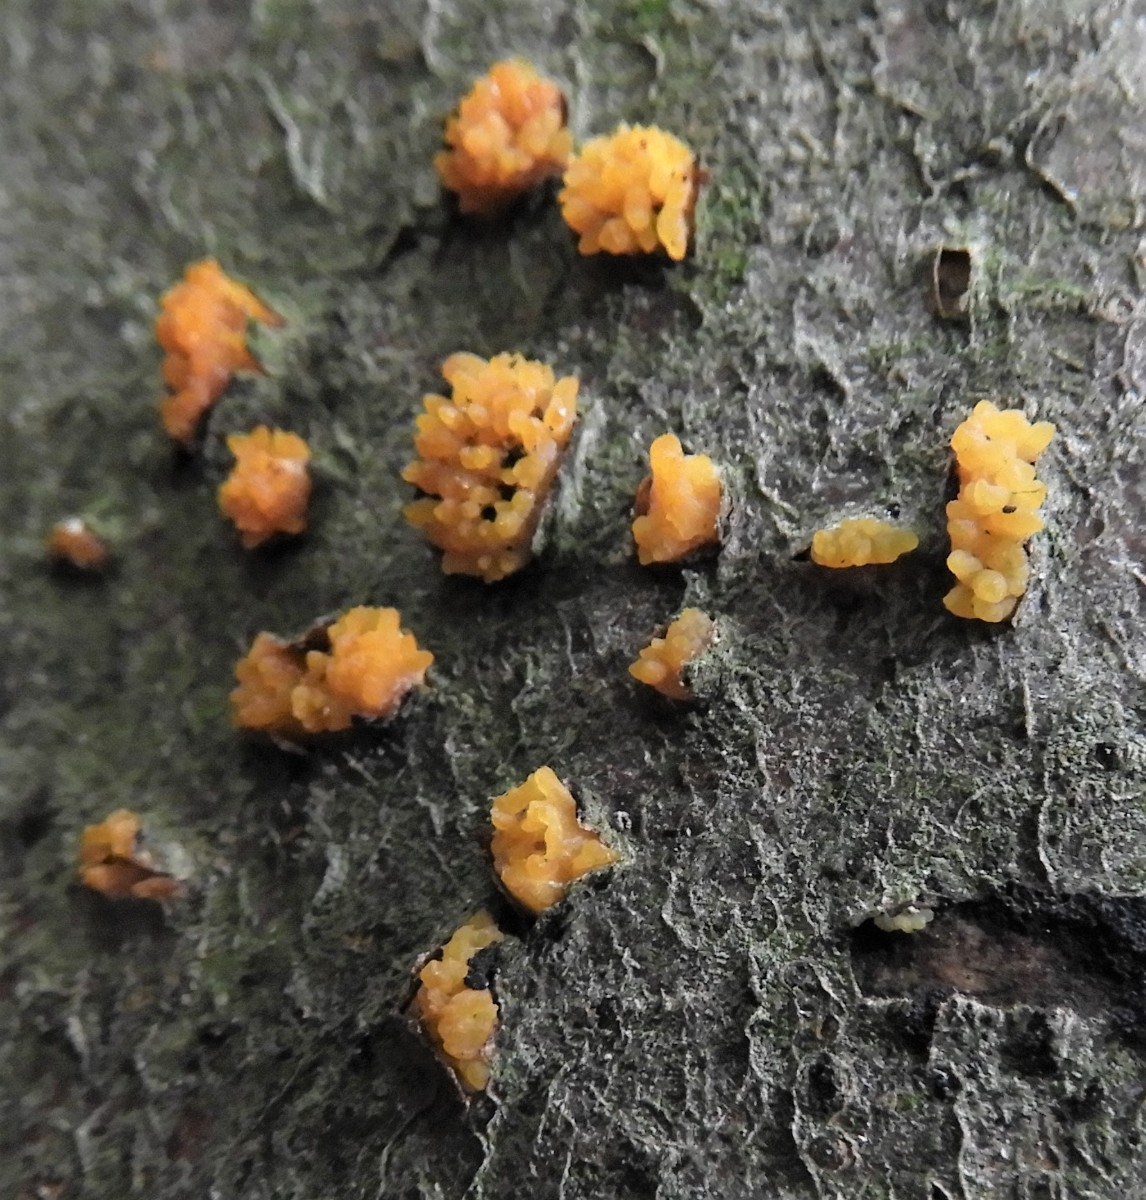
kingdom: Fungi
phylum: Basidiomycota
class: Dacrymycetes
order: Dacrymycetales
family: Dacrymycetaceae
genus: Calocera
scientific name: Calocera cornea
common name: liden guldgaffel
